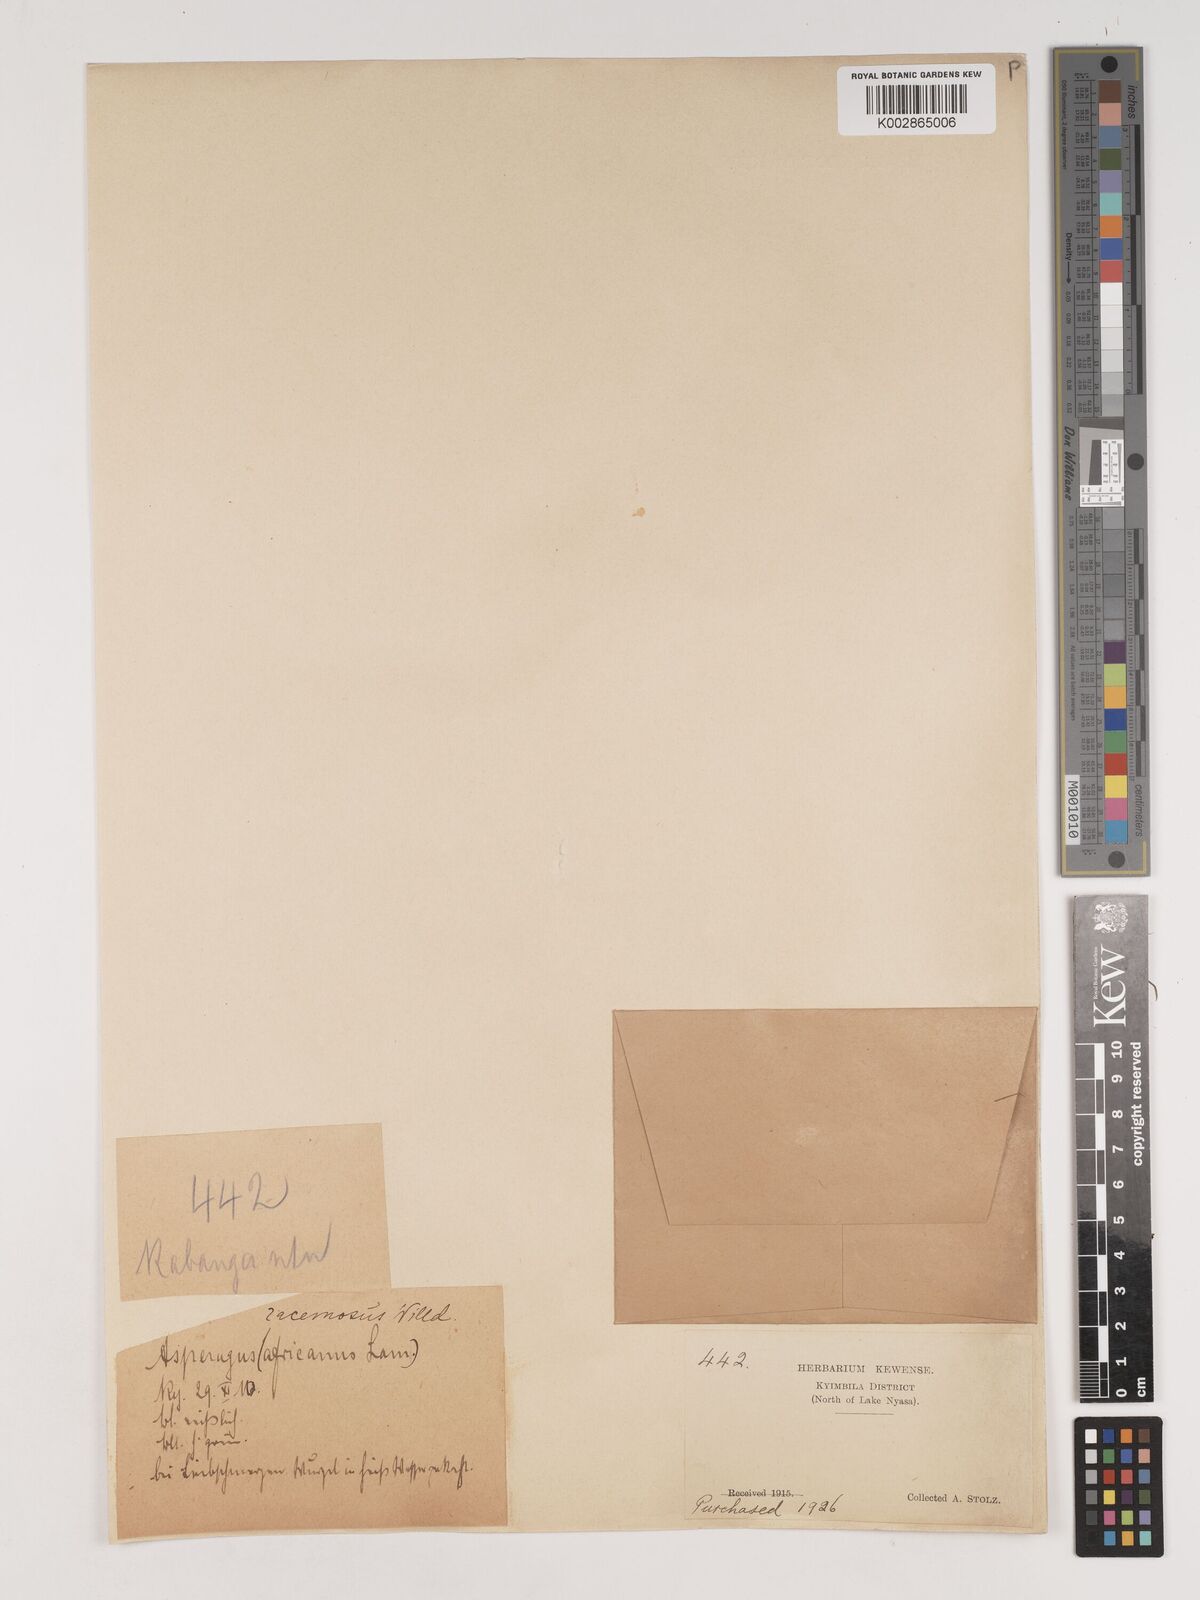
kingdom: Plantae
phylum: Tracheophyta
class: Liliopsida
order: Asparagales
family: Asparagaceae
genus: Asparagus
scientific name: Asparagus buchananii
